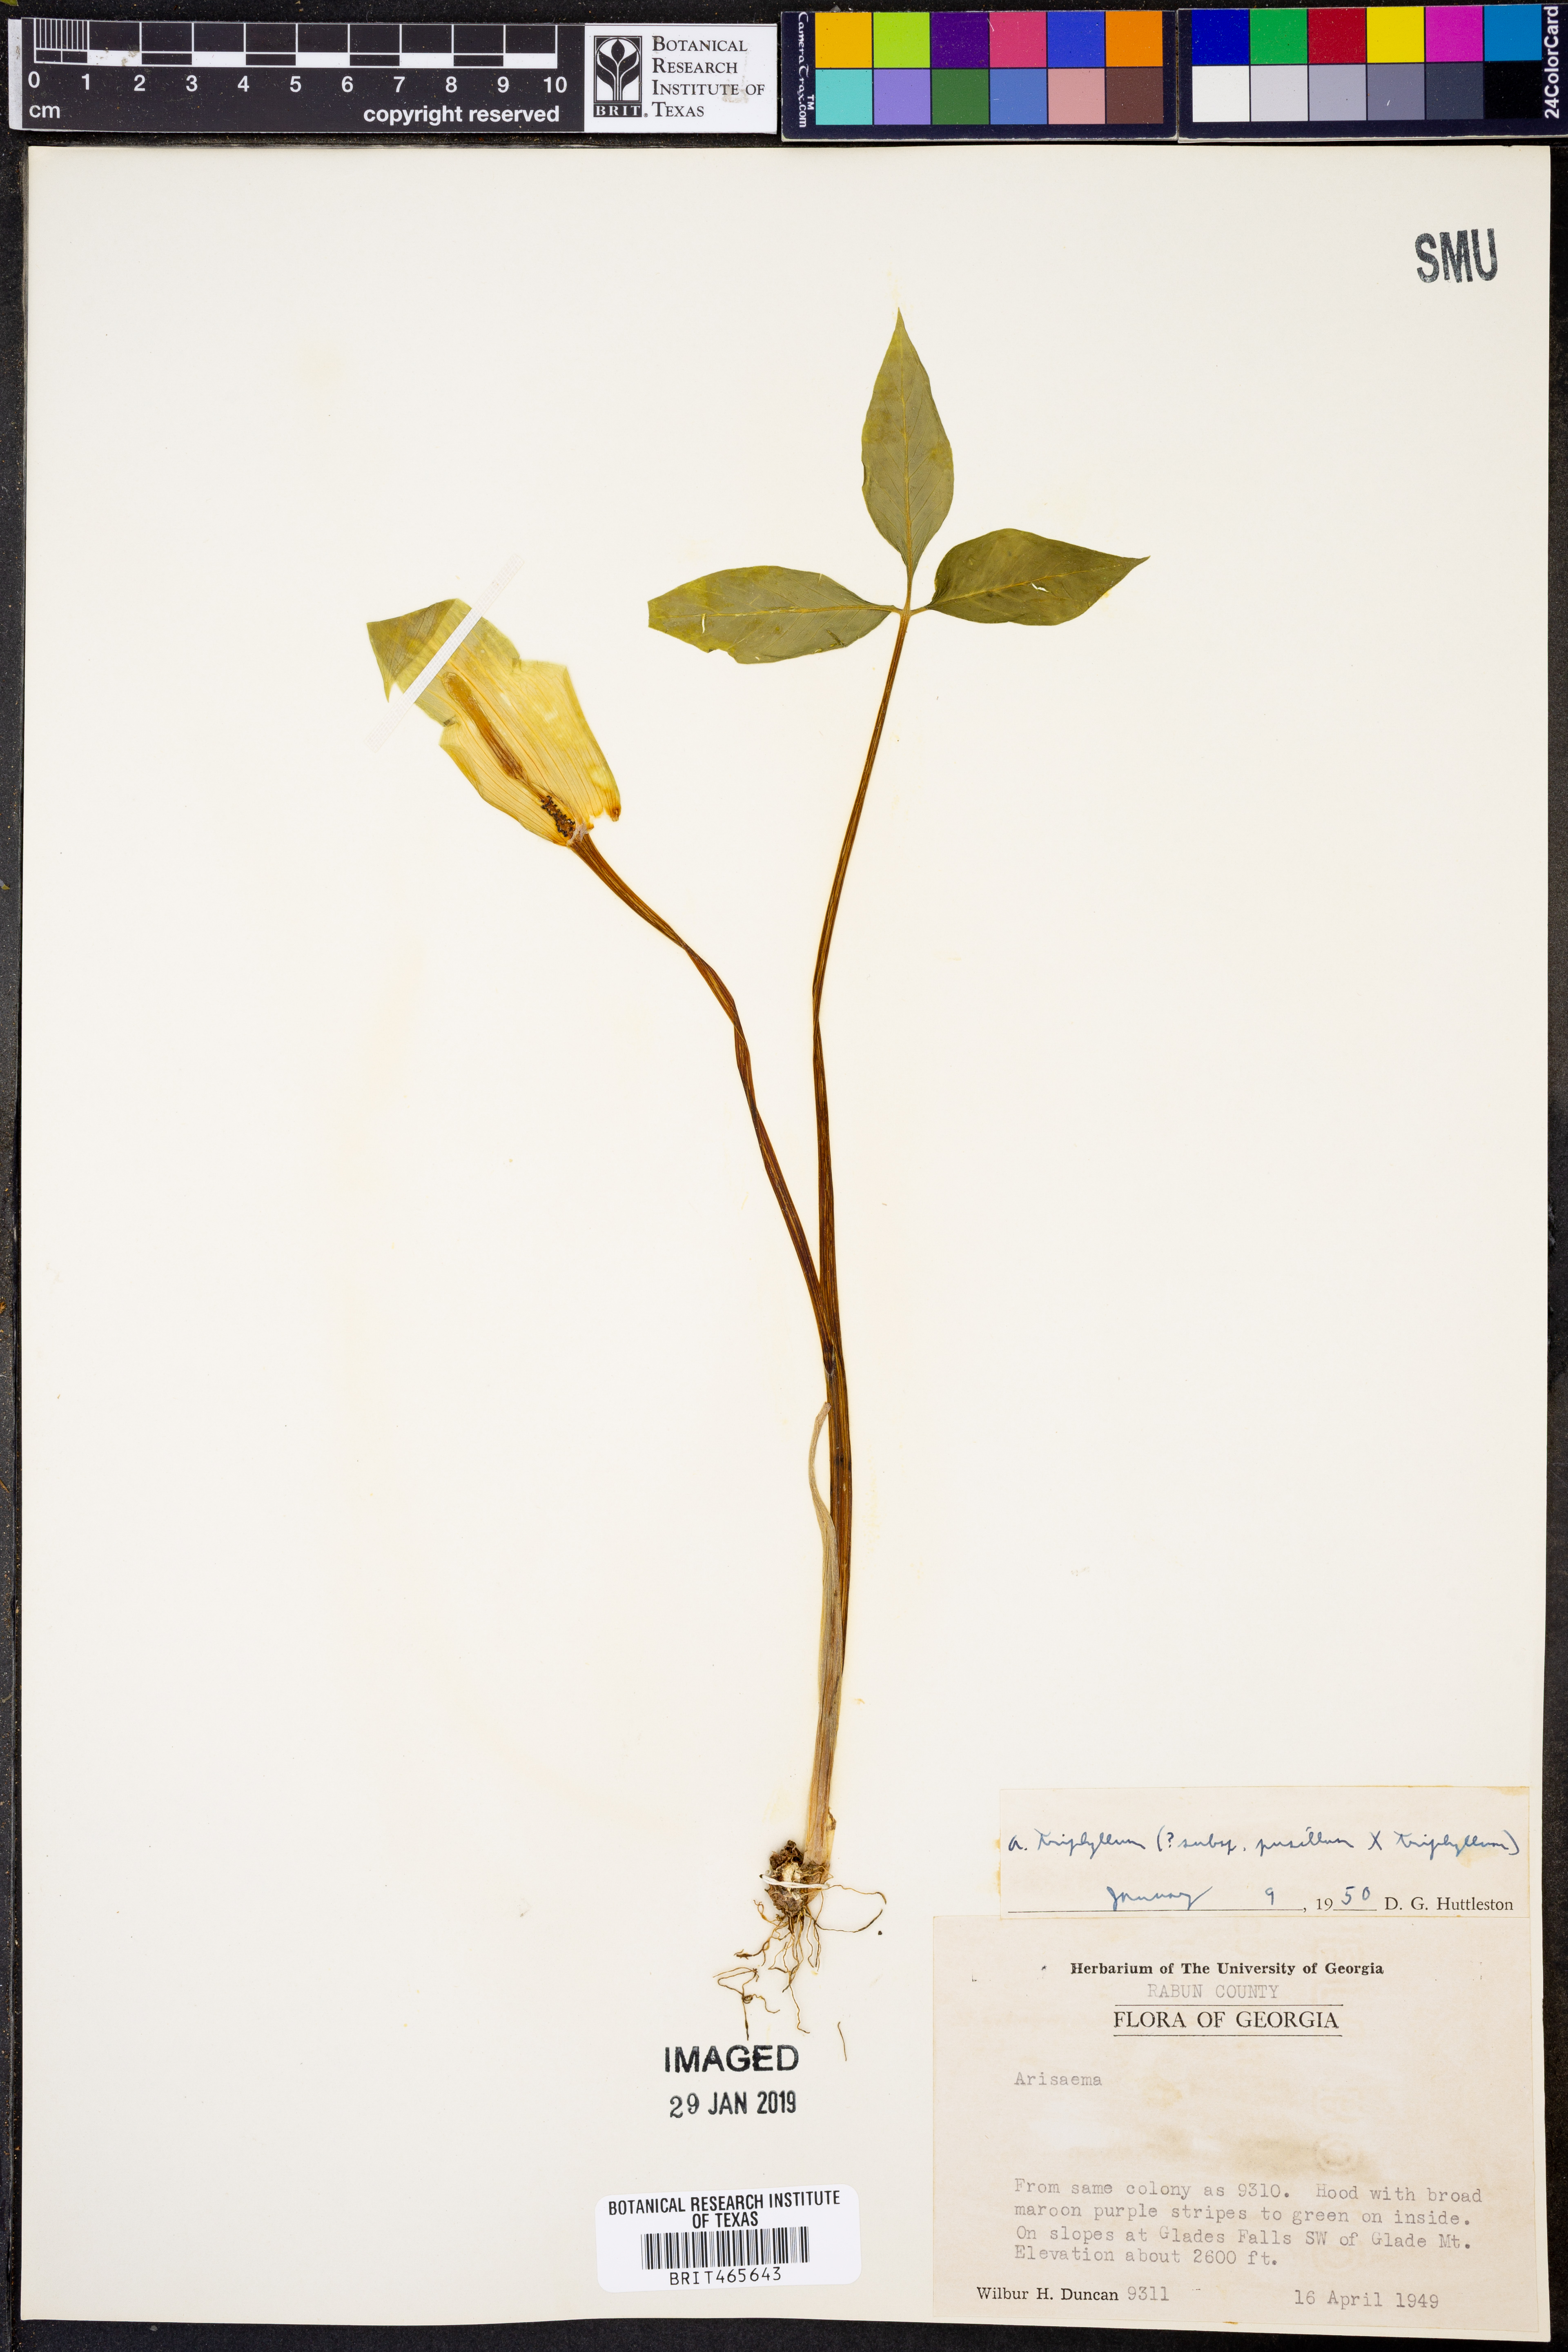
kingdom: Plantae
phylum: Tracheophyta
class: Liliopsida
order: Alismatales
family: Araceae
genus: Arisaema
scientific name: Arisaema triphyllum
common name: Jack-in-the-pulpit
